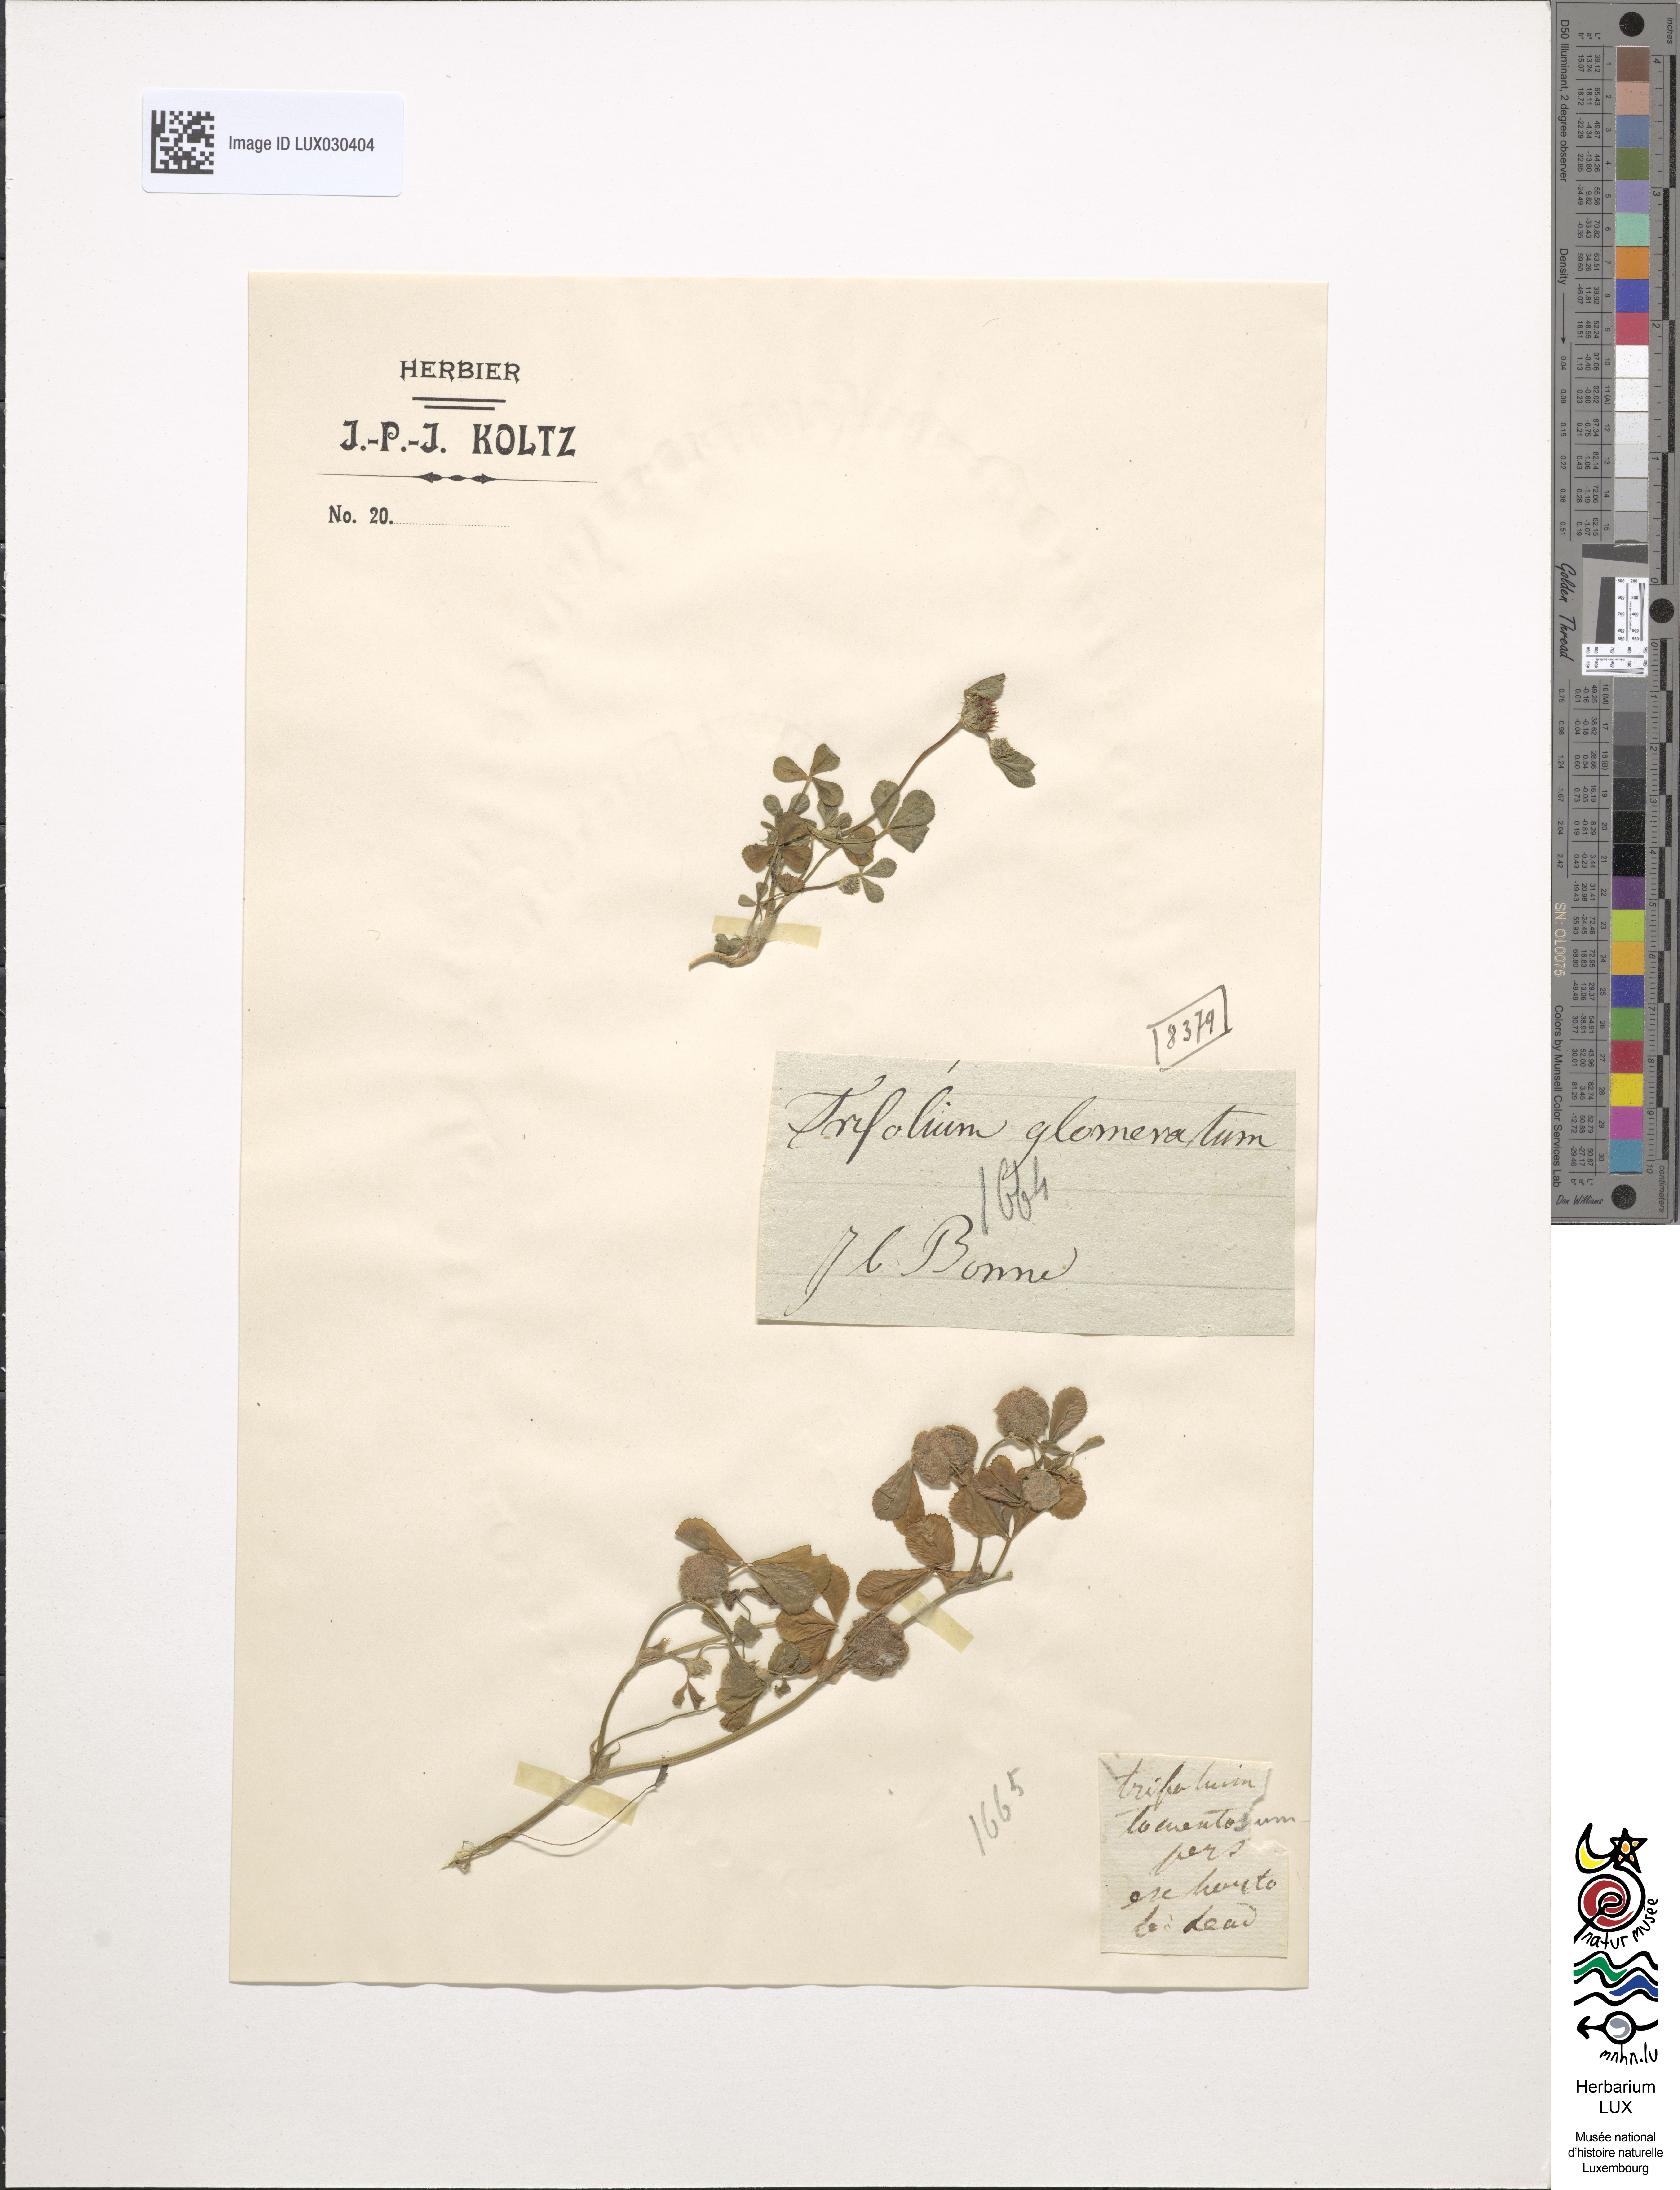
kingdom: Plantae
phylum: Tracheophyta
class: Magnoliopsida
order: Fabales
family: Fabaceae
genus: Trifolium
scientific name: Trifolium glomeratum
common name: Clustered clover
